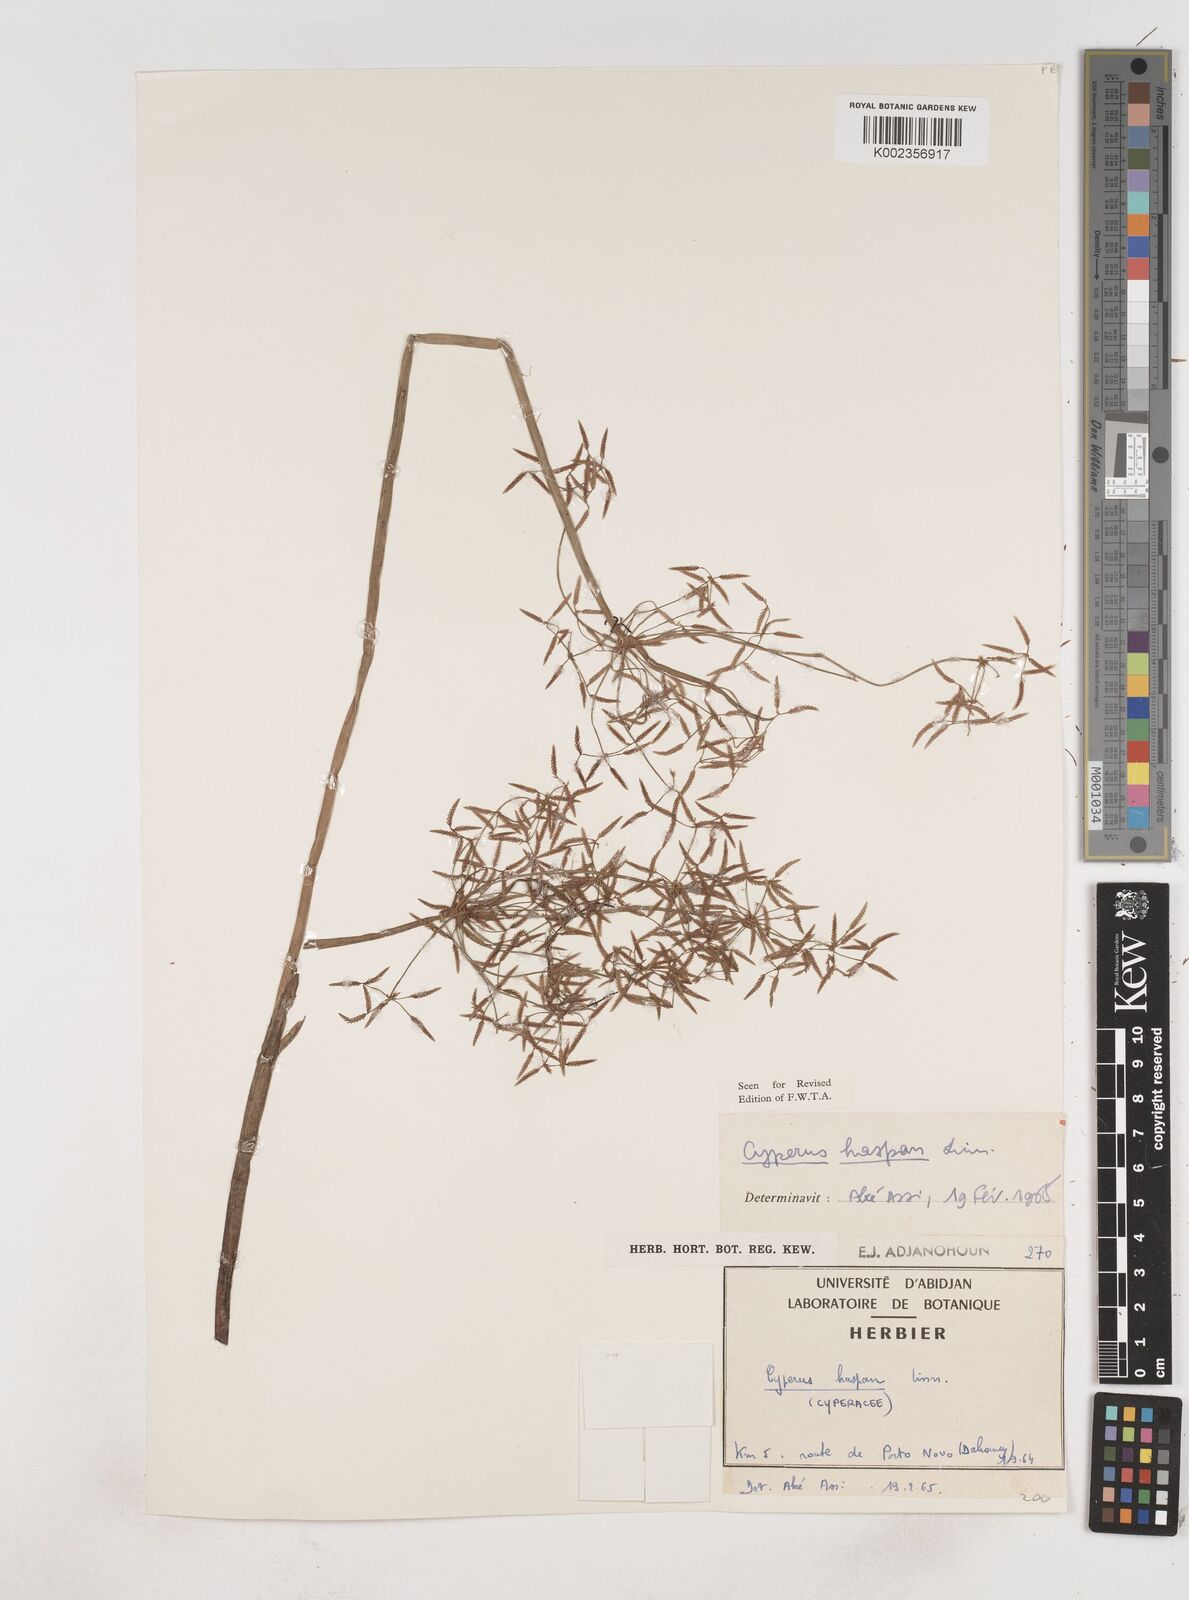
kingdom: Plantae
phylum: Tracheophyta
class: Liliopsida
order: Poales
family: Cyperaceae
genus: Cyperus
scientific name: Cyperus haspan
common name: Haspan flatsedge
